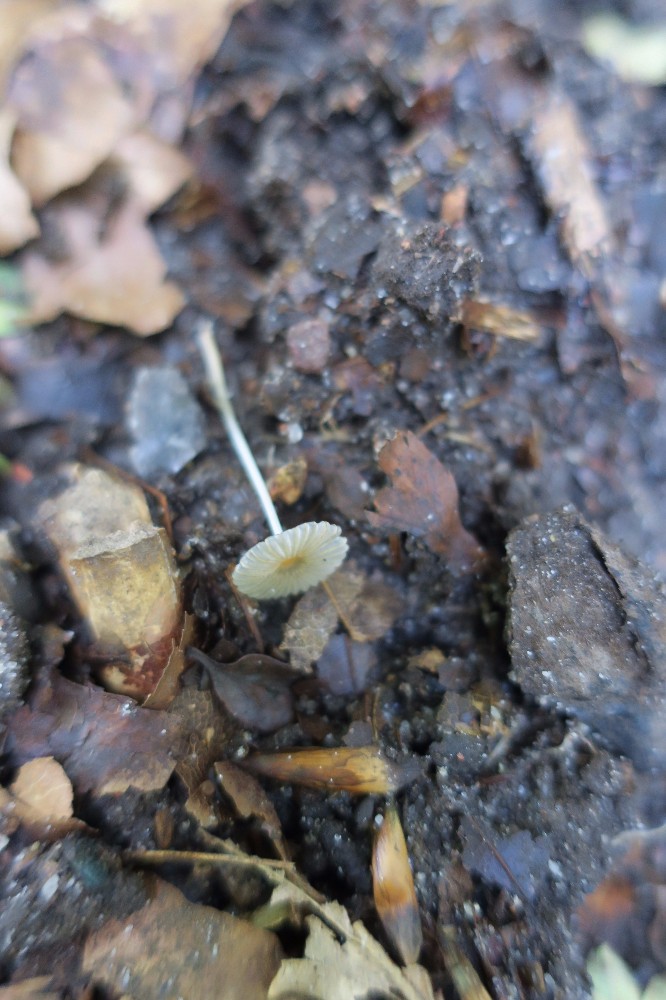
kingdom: Fungi
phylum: Basidiomycota
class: Agaricomycetes
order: Agaricales
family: Psathyrellaceae
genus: Parasola
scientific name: Parasola
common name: hjulhat
